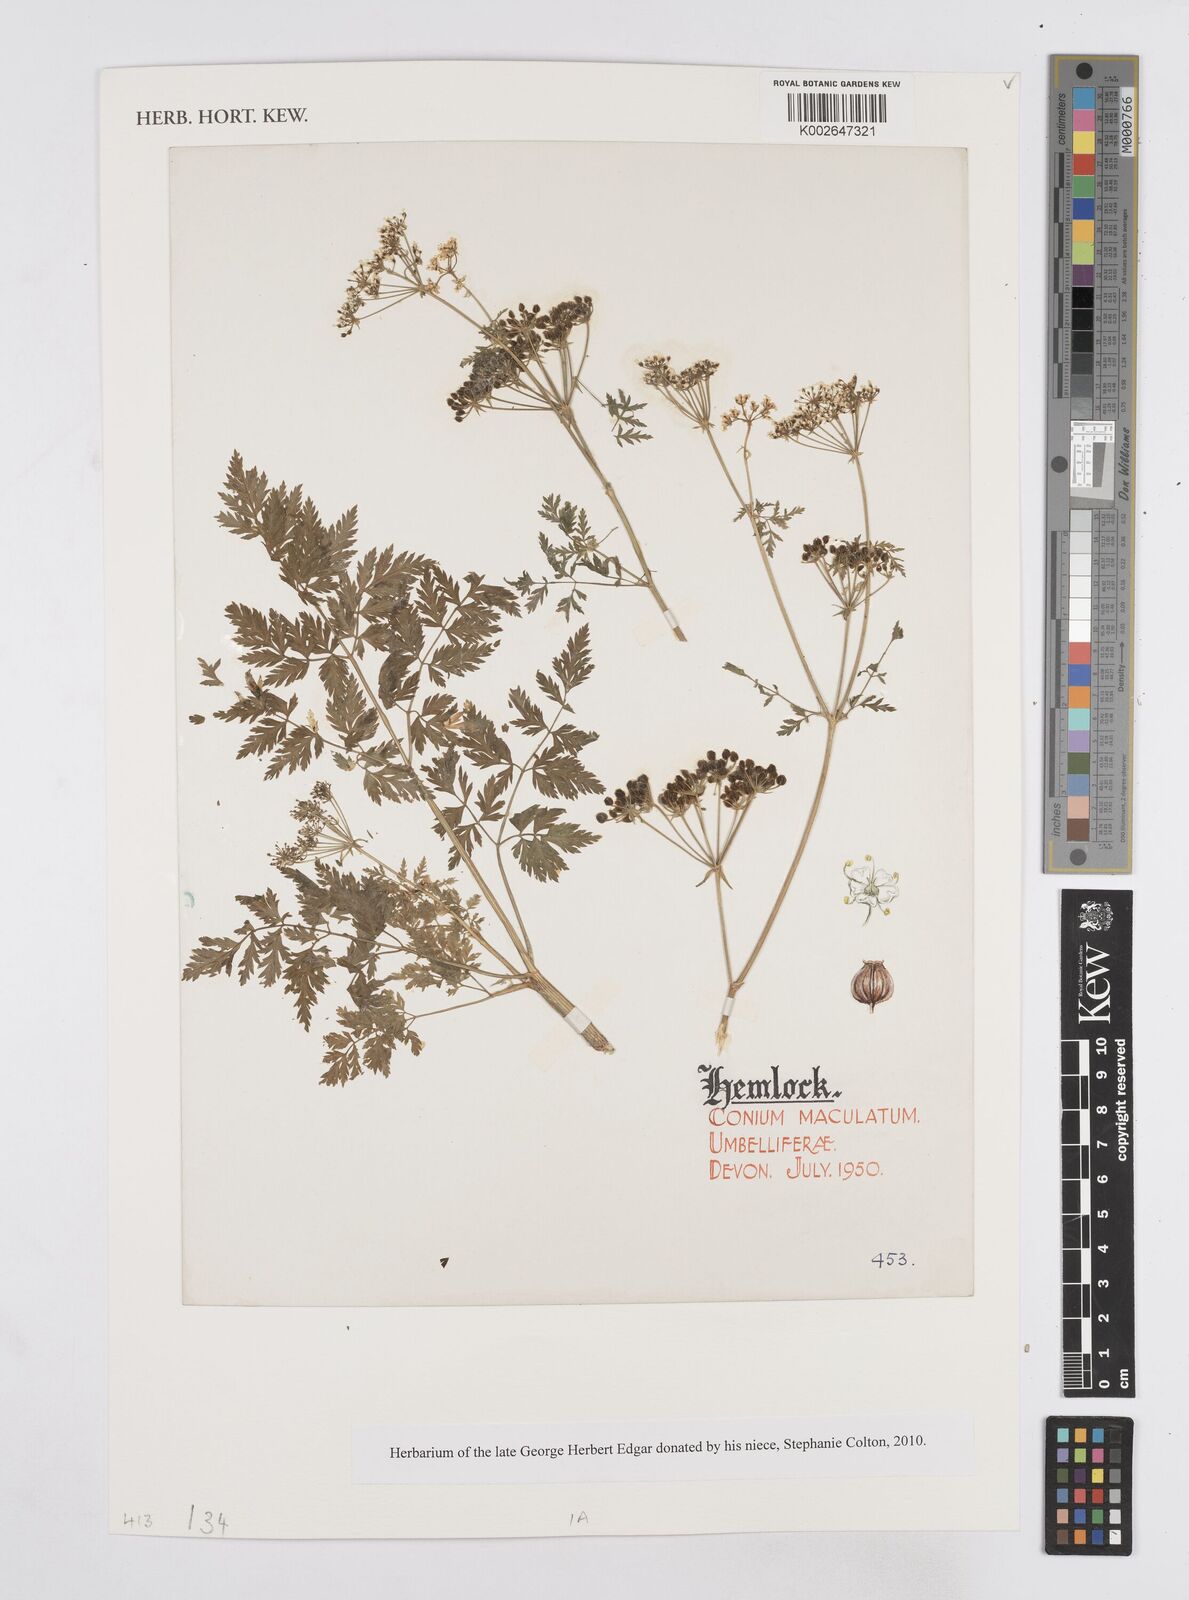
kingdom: Plantae
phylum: Tracheophyta
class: Magnoliopsida
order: Apiales
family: Apiaceae
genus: Conium
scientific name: Conium maculatum
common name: Hemlock
